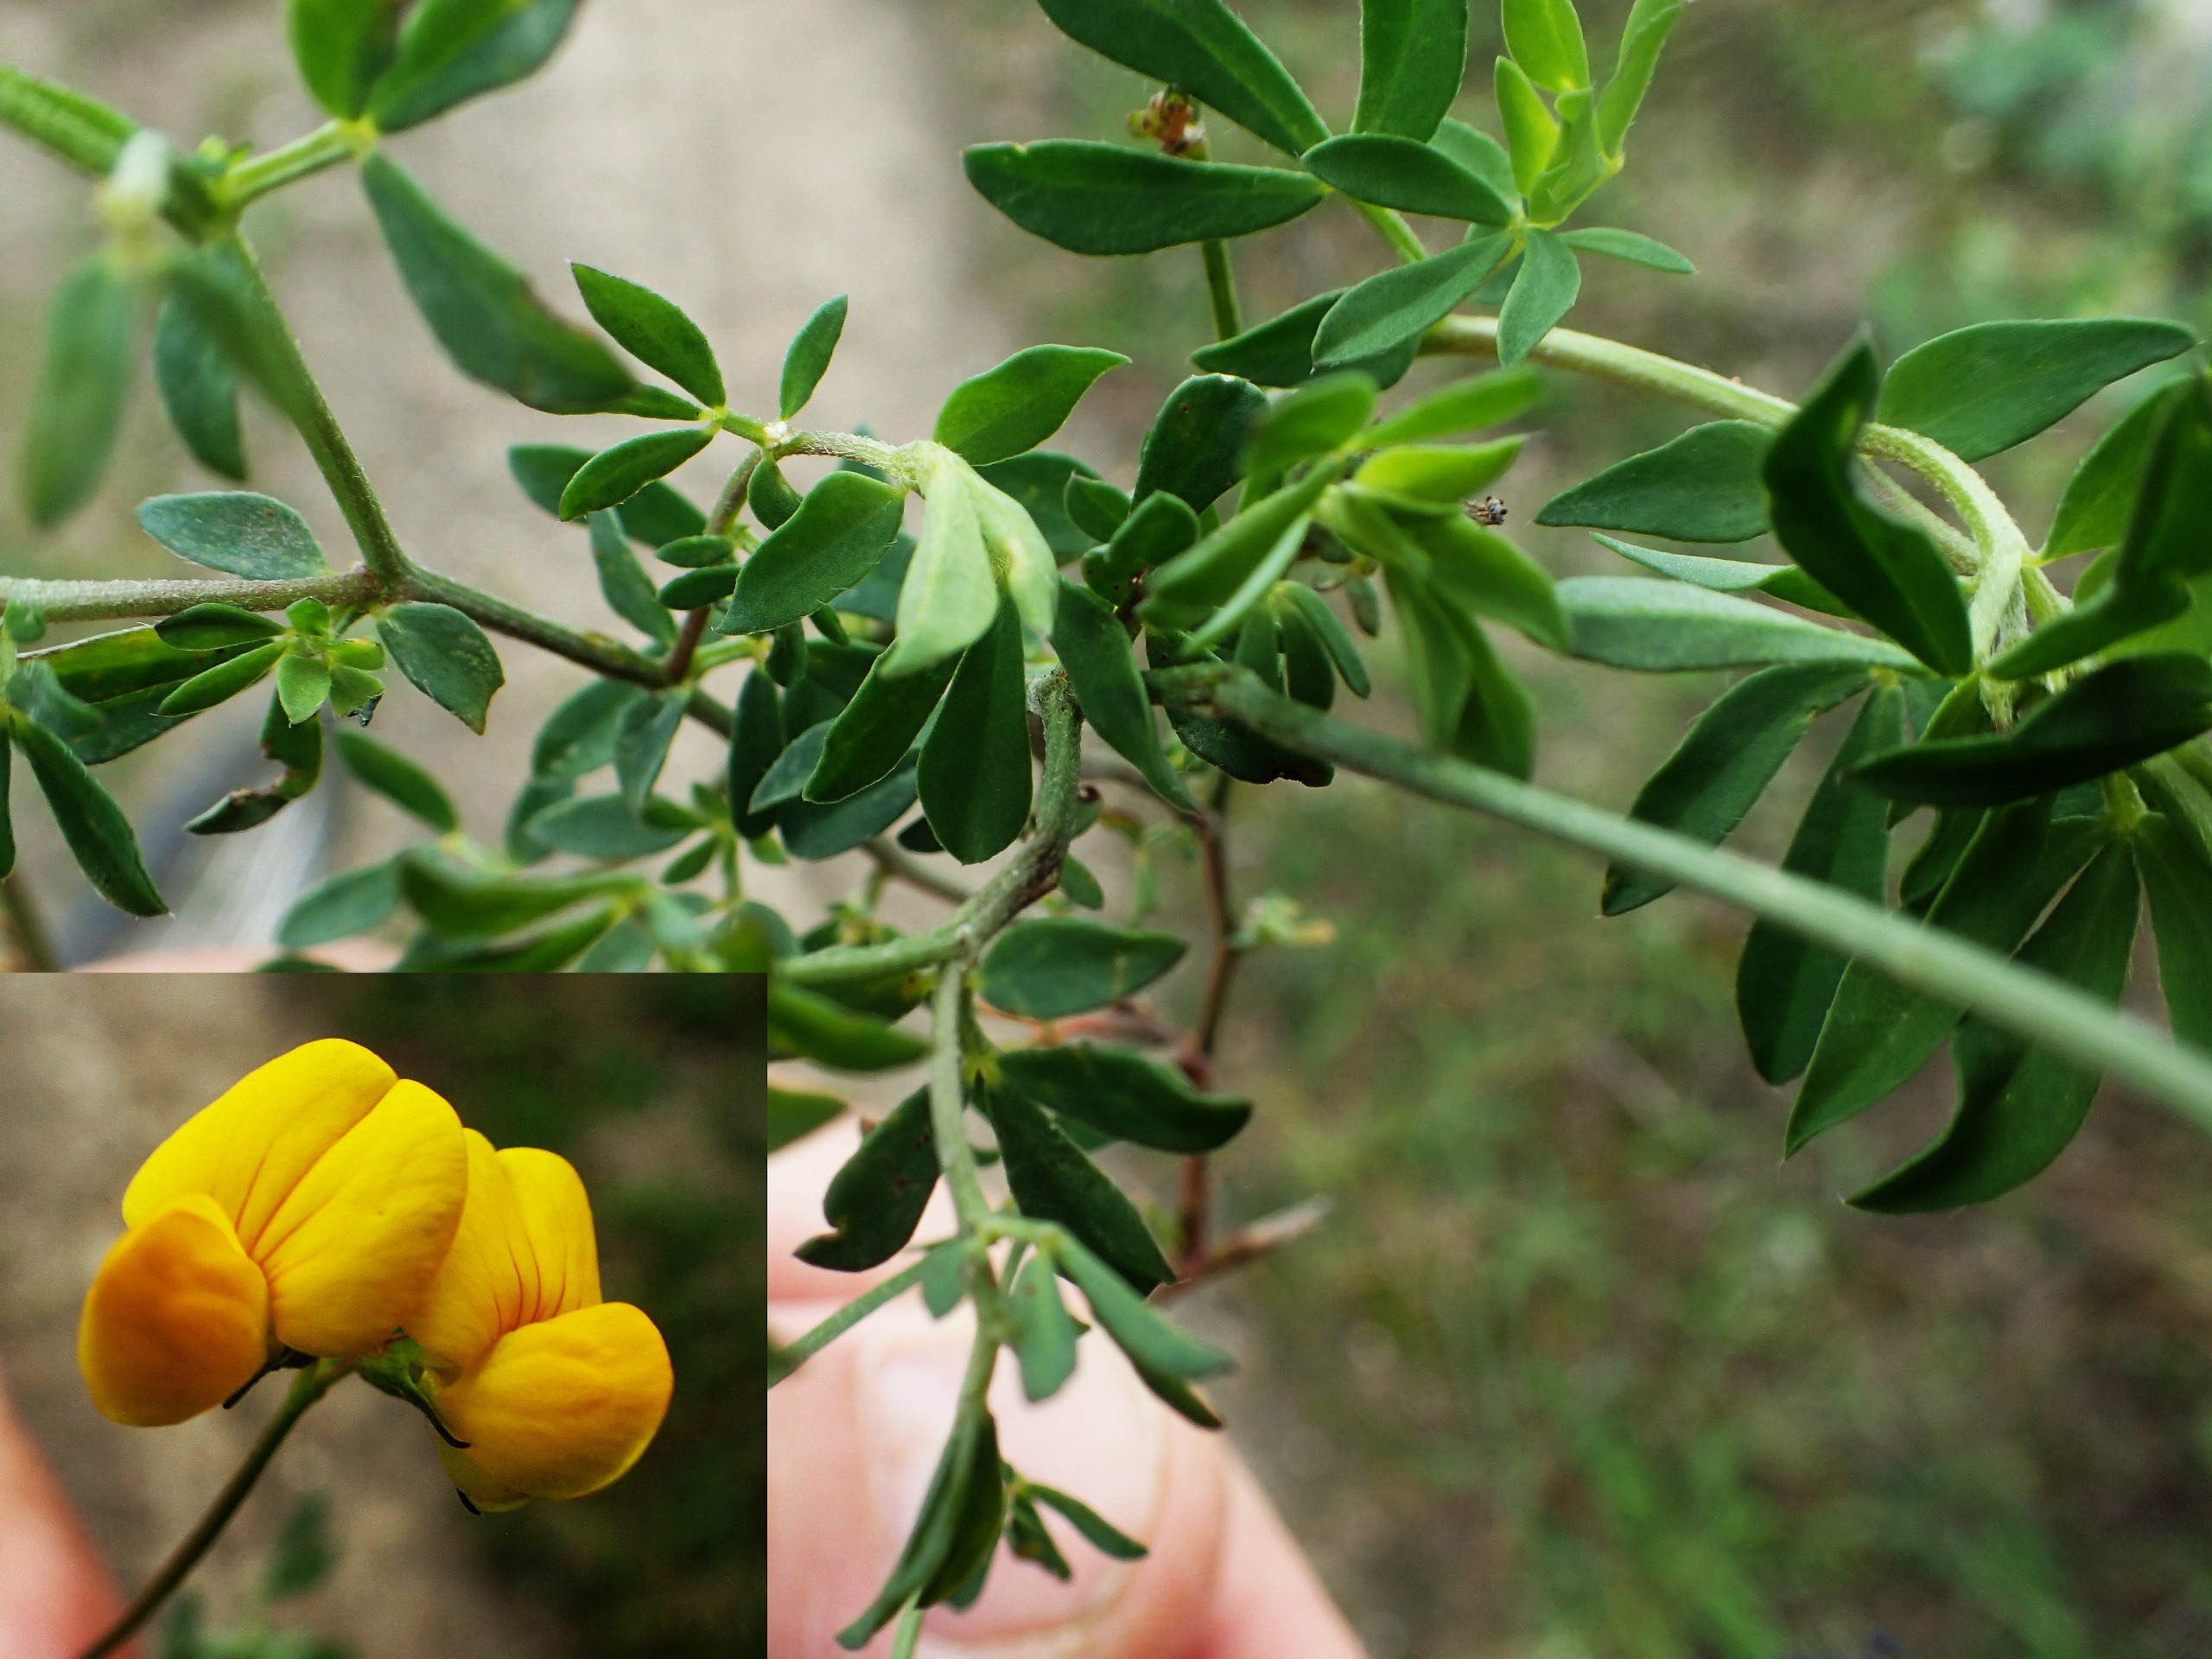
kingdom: Plantae
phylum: Tracheophyta
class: Magnoliopsida
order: Fabales
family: Fabaceae
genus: Lotus
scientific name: Lotus tenuis
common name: Smalbladet kællingetand
